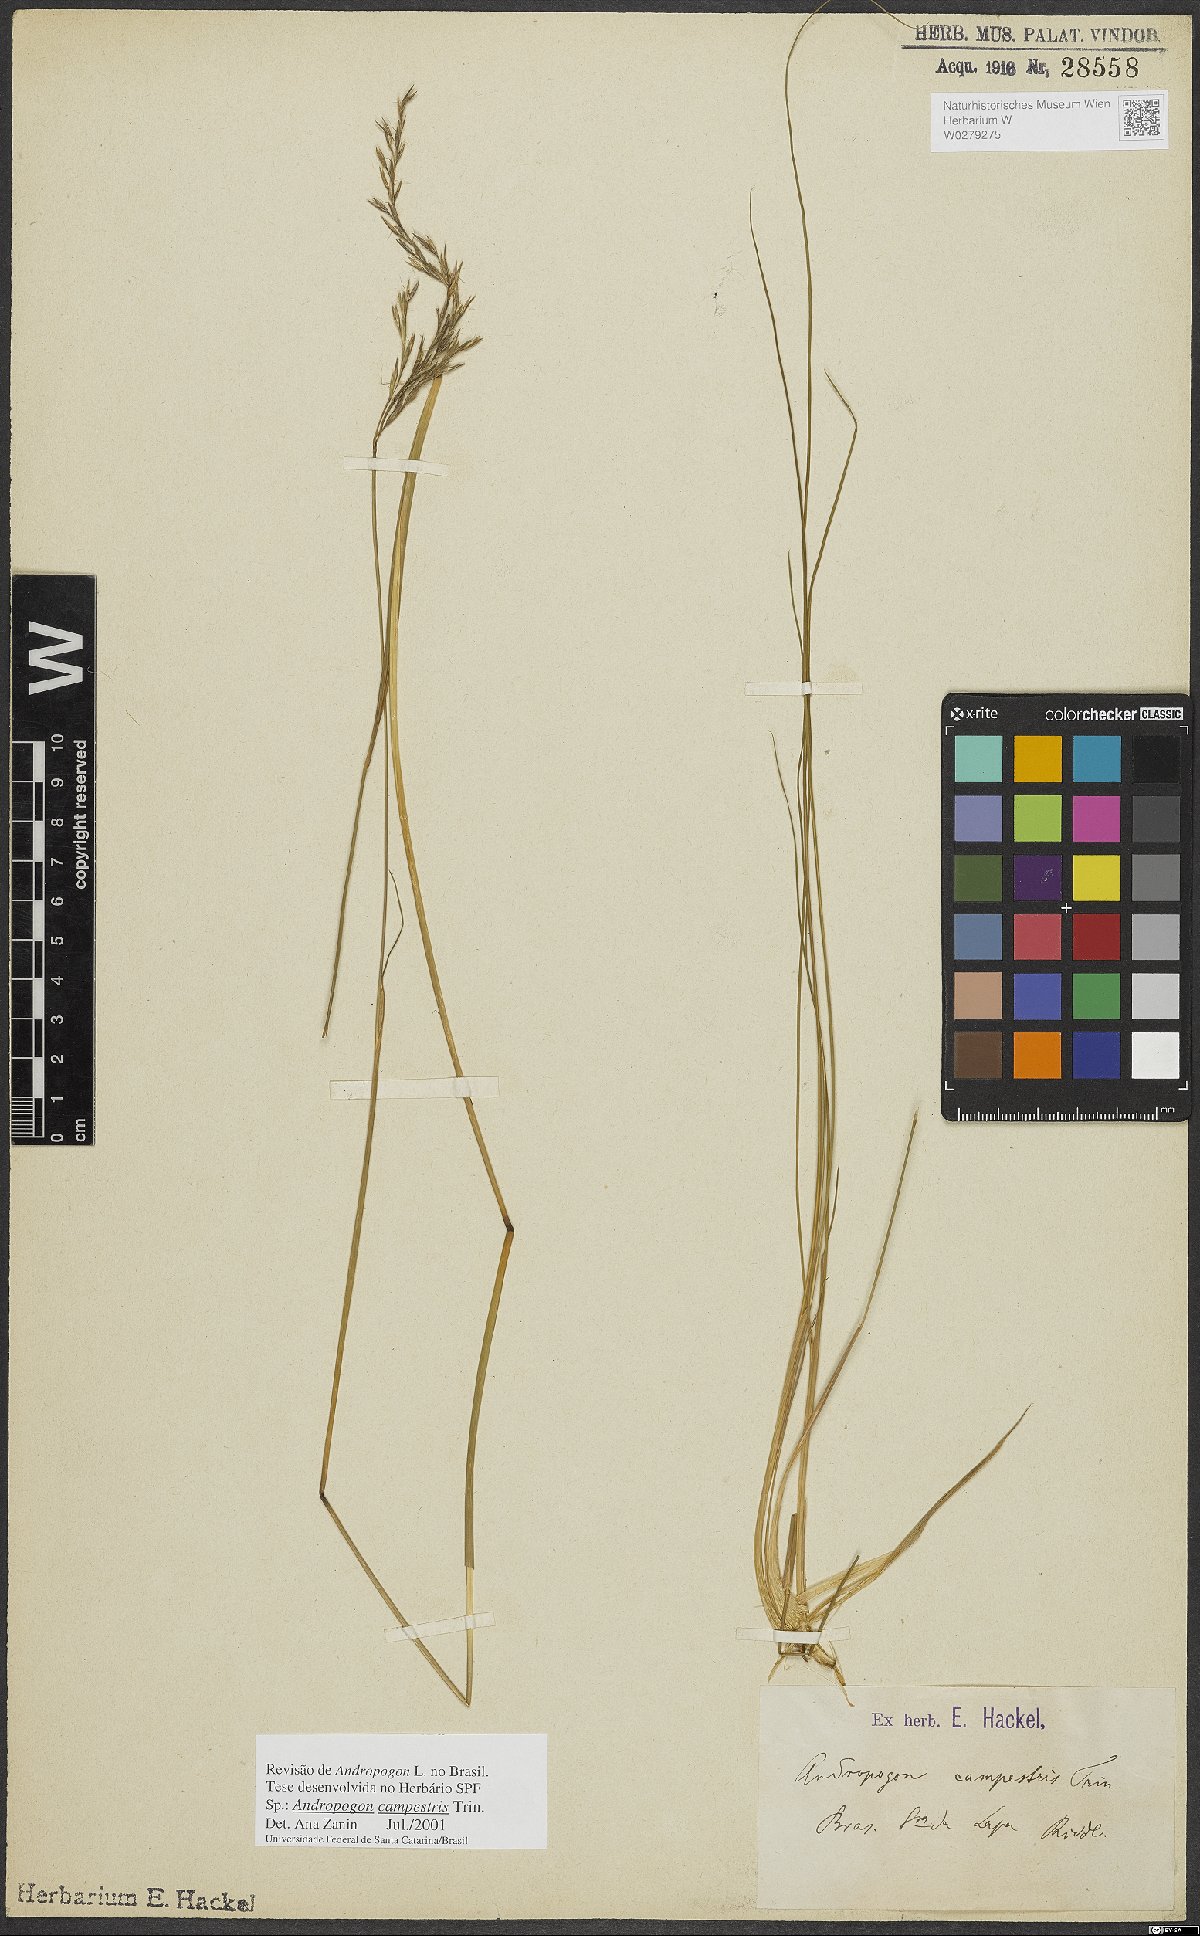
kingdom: Plantae
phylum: Tracheophyta
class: Liliopsida
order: Poales
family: Poaceae
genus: Andropogon
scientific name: Andropogon campestris
